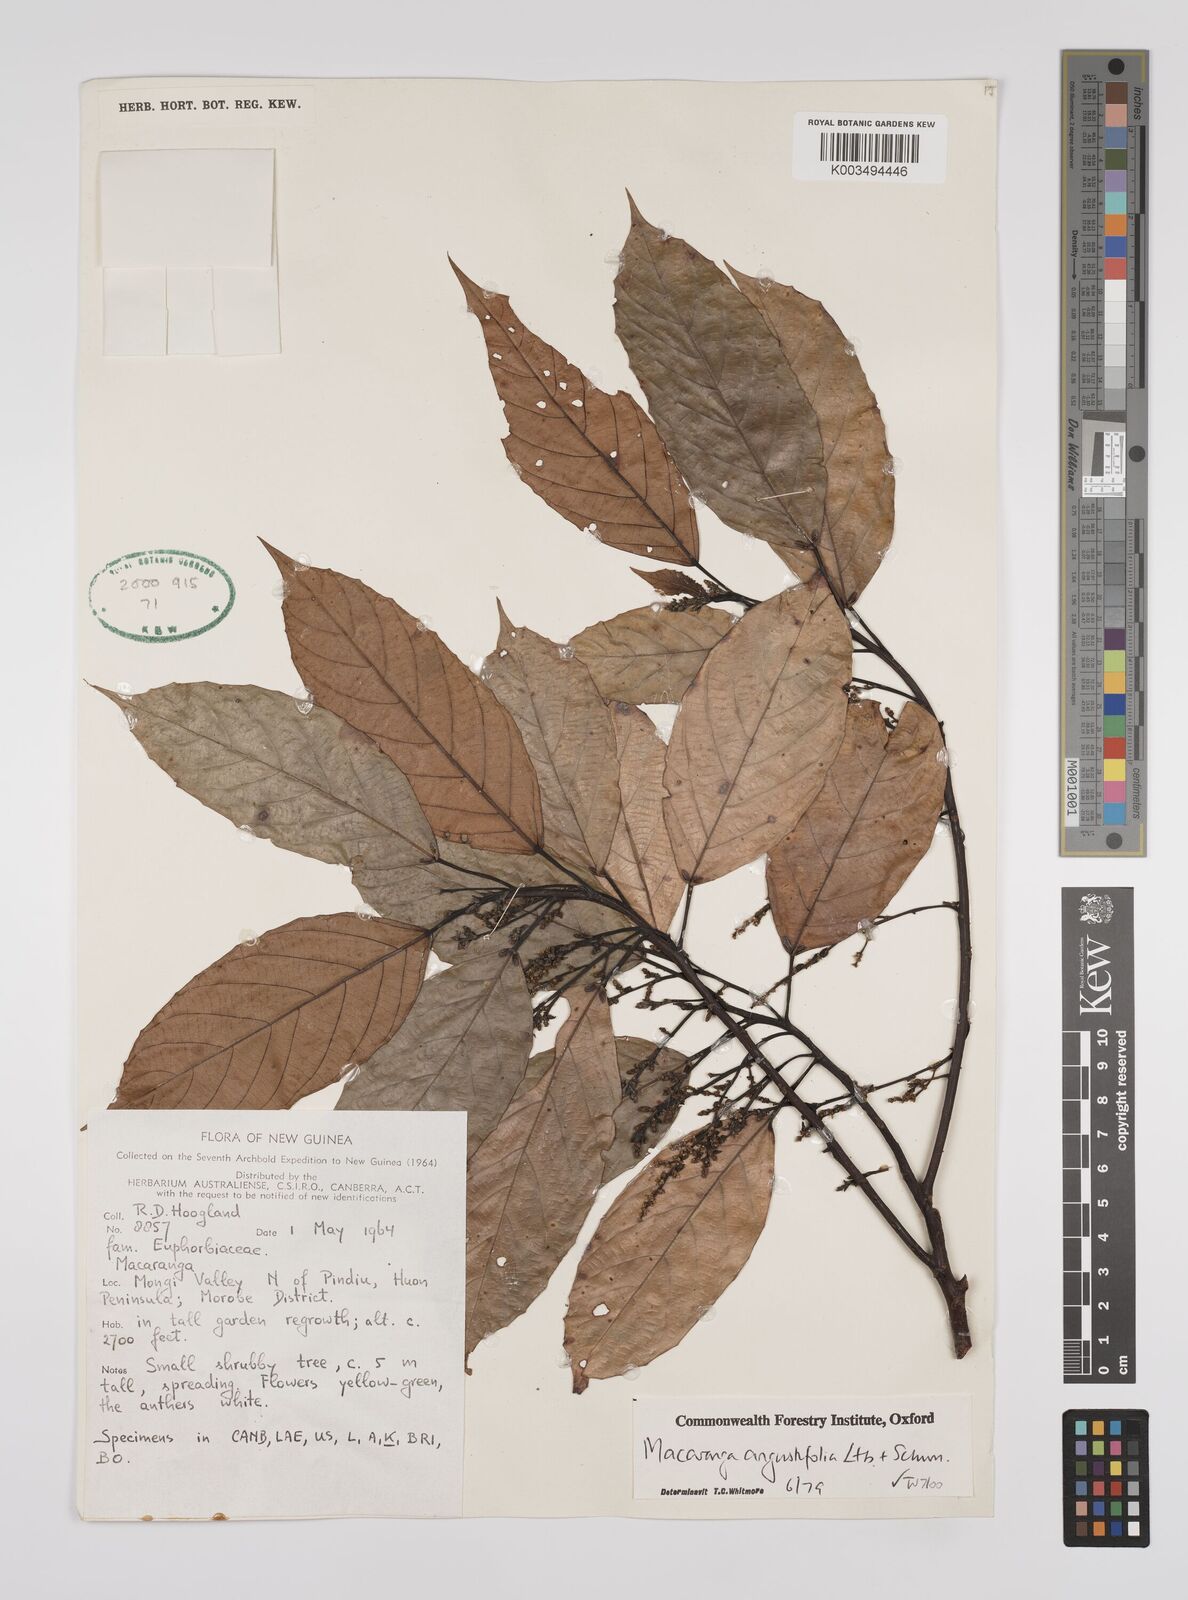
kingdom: Plantae
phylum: Tracheophyta
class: Magnoliopsida
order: Malpighiales
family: Euphorbiaceae
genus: Macaranga
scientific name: Macaranga angustifolia
